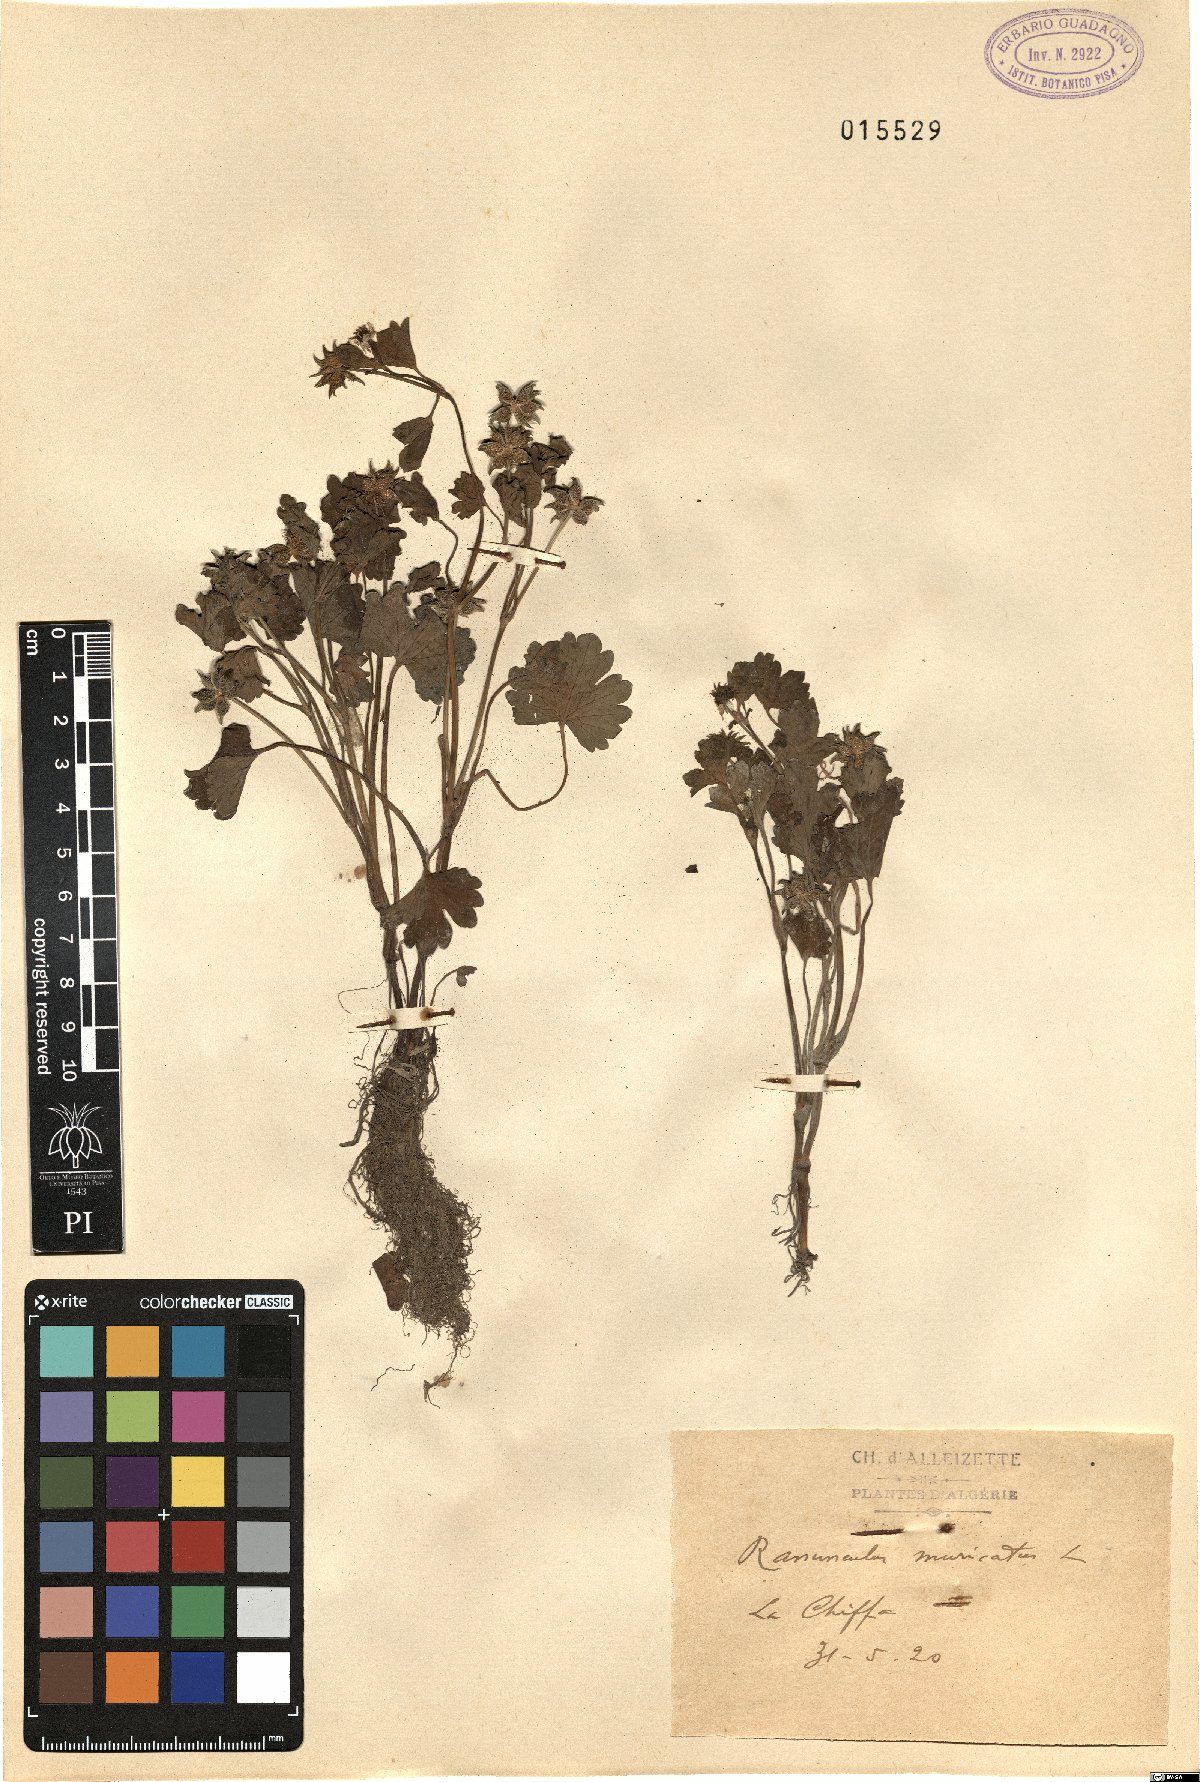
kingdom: Plantae
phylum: Tracheophyta
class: Magnoliopsida
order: Ranunculales
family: Ranunculaceae
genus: Ranunculus
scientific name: Ranunculus muricatus
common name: Rough-fruited buttercup
